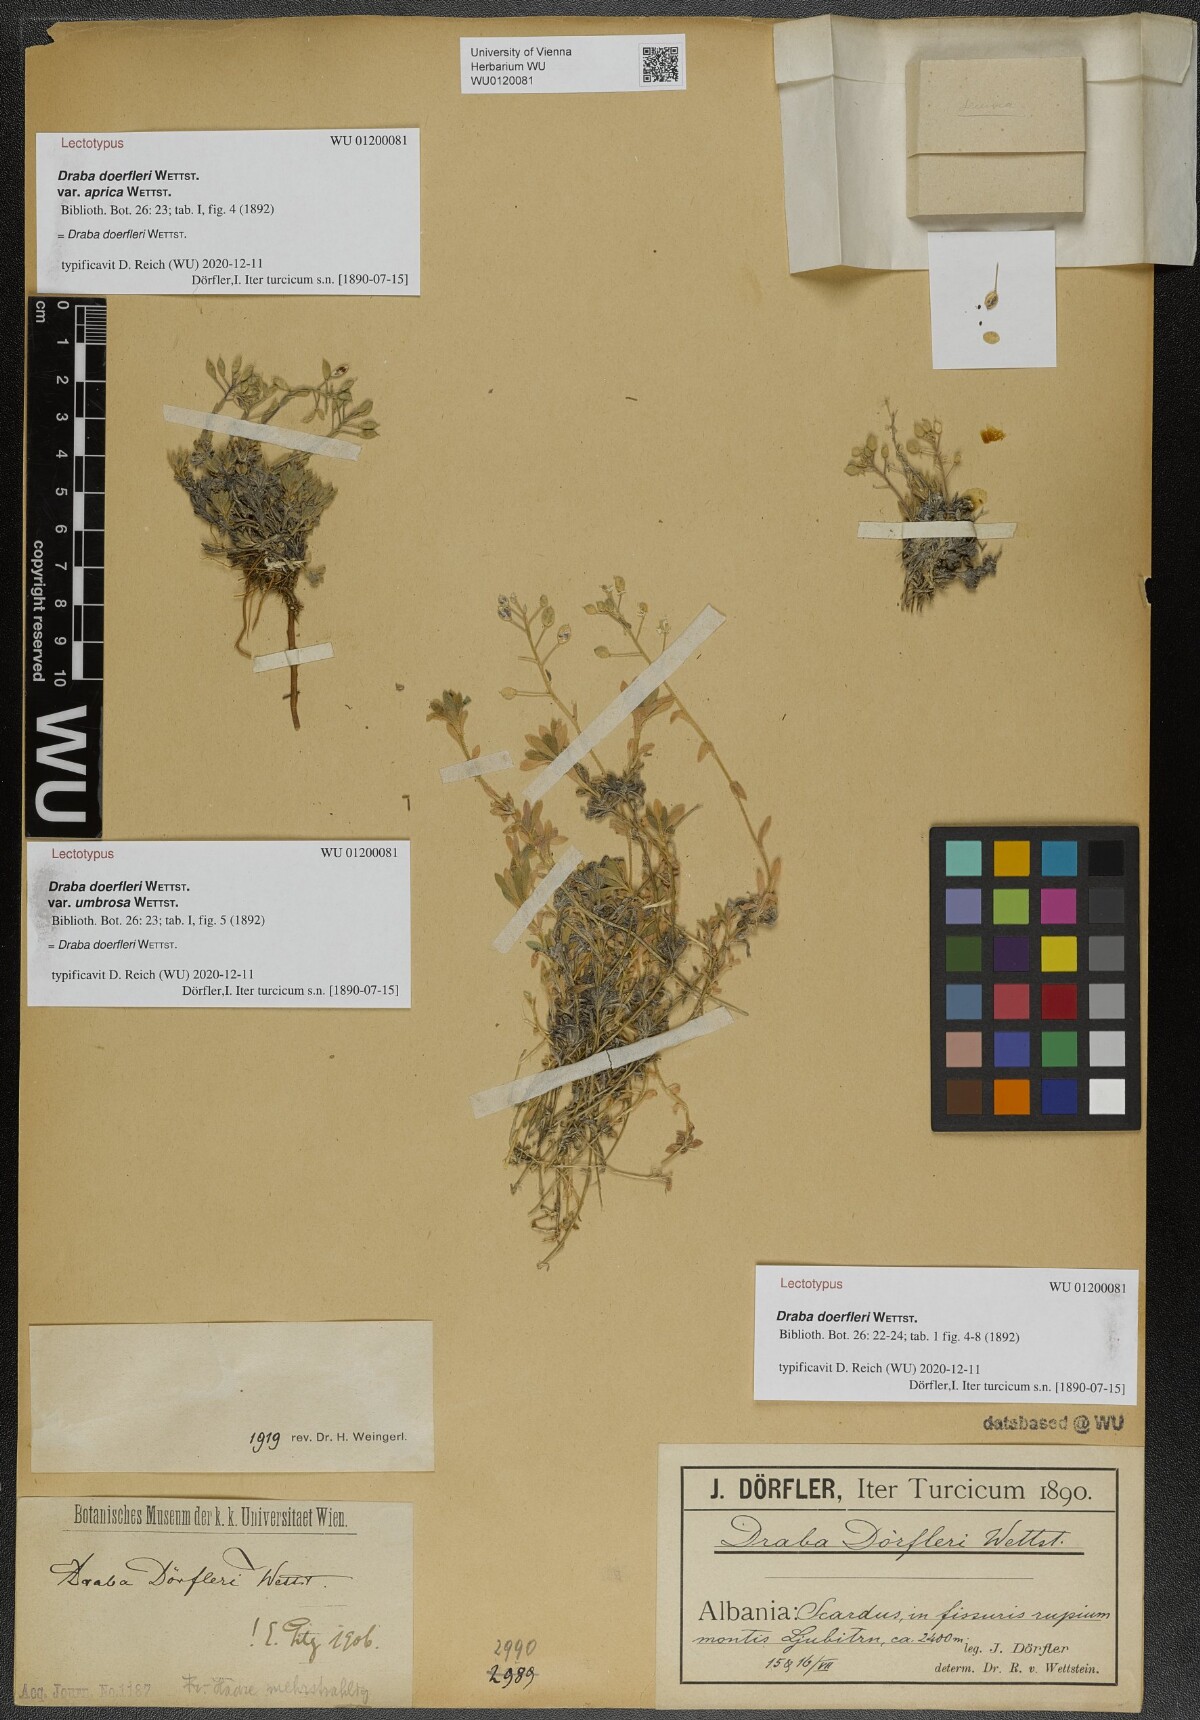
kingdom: Plantae
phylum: Tracheophyta
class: Magnoliopsida
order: Brassicales
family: Brassicaceae
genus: Draba
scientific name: Draba doerfleri
